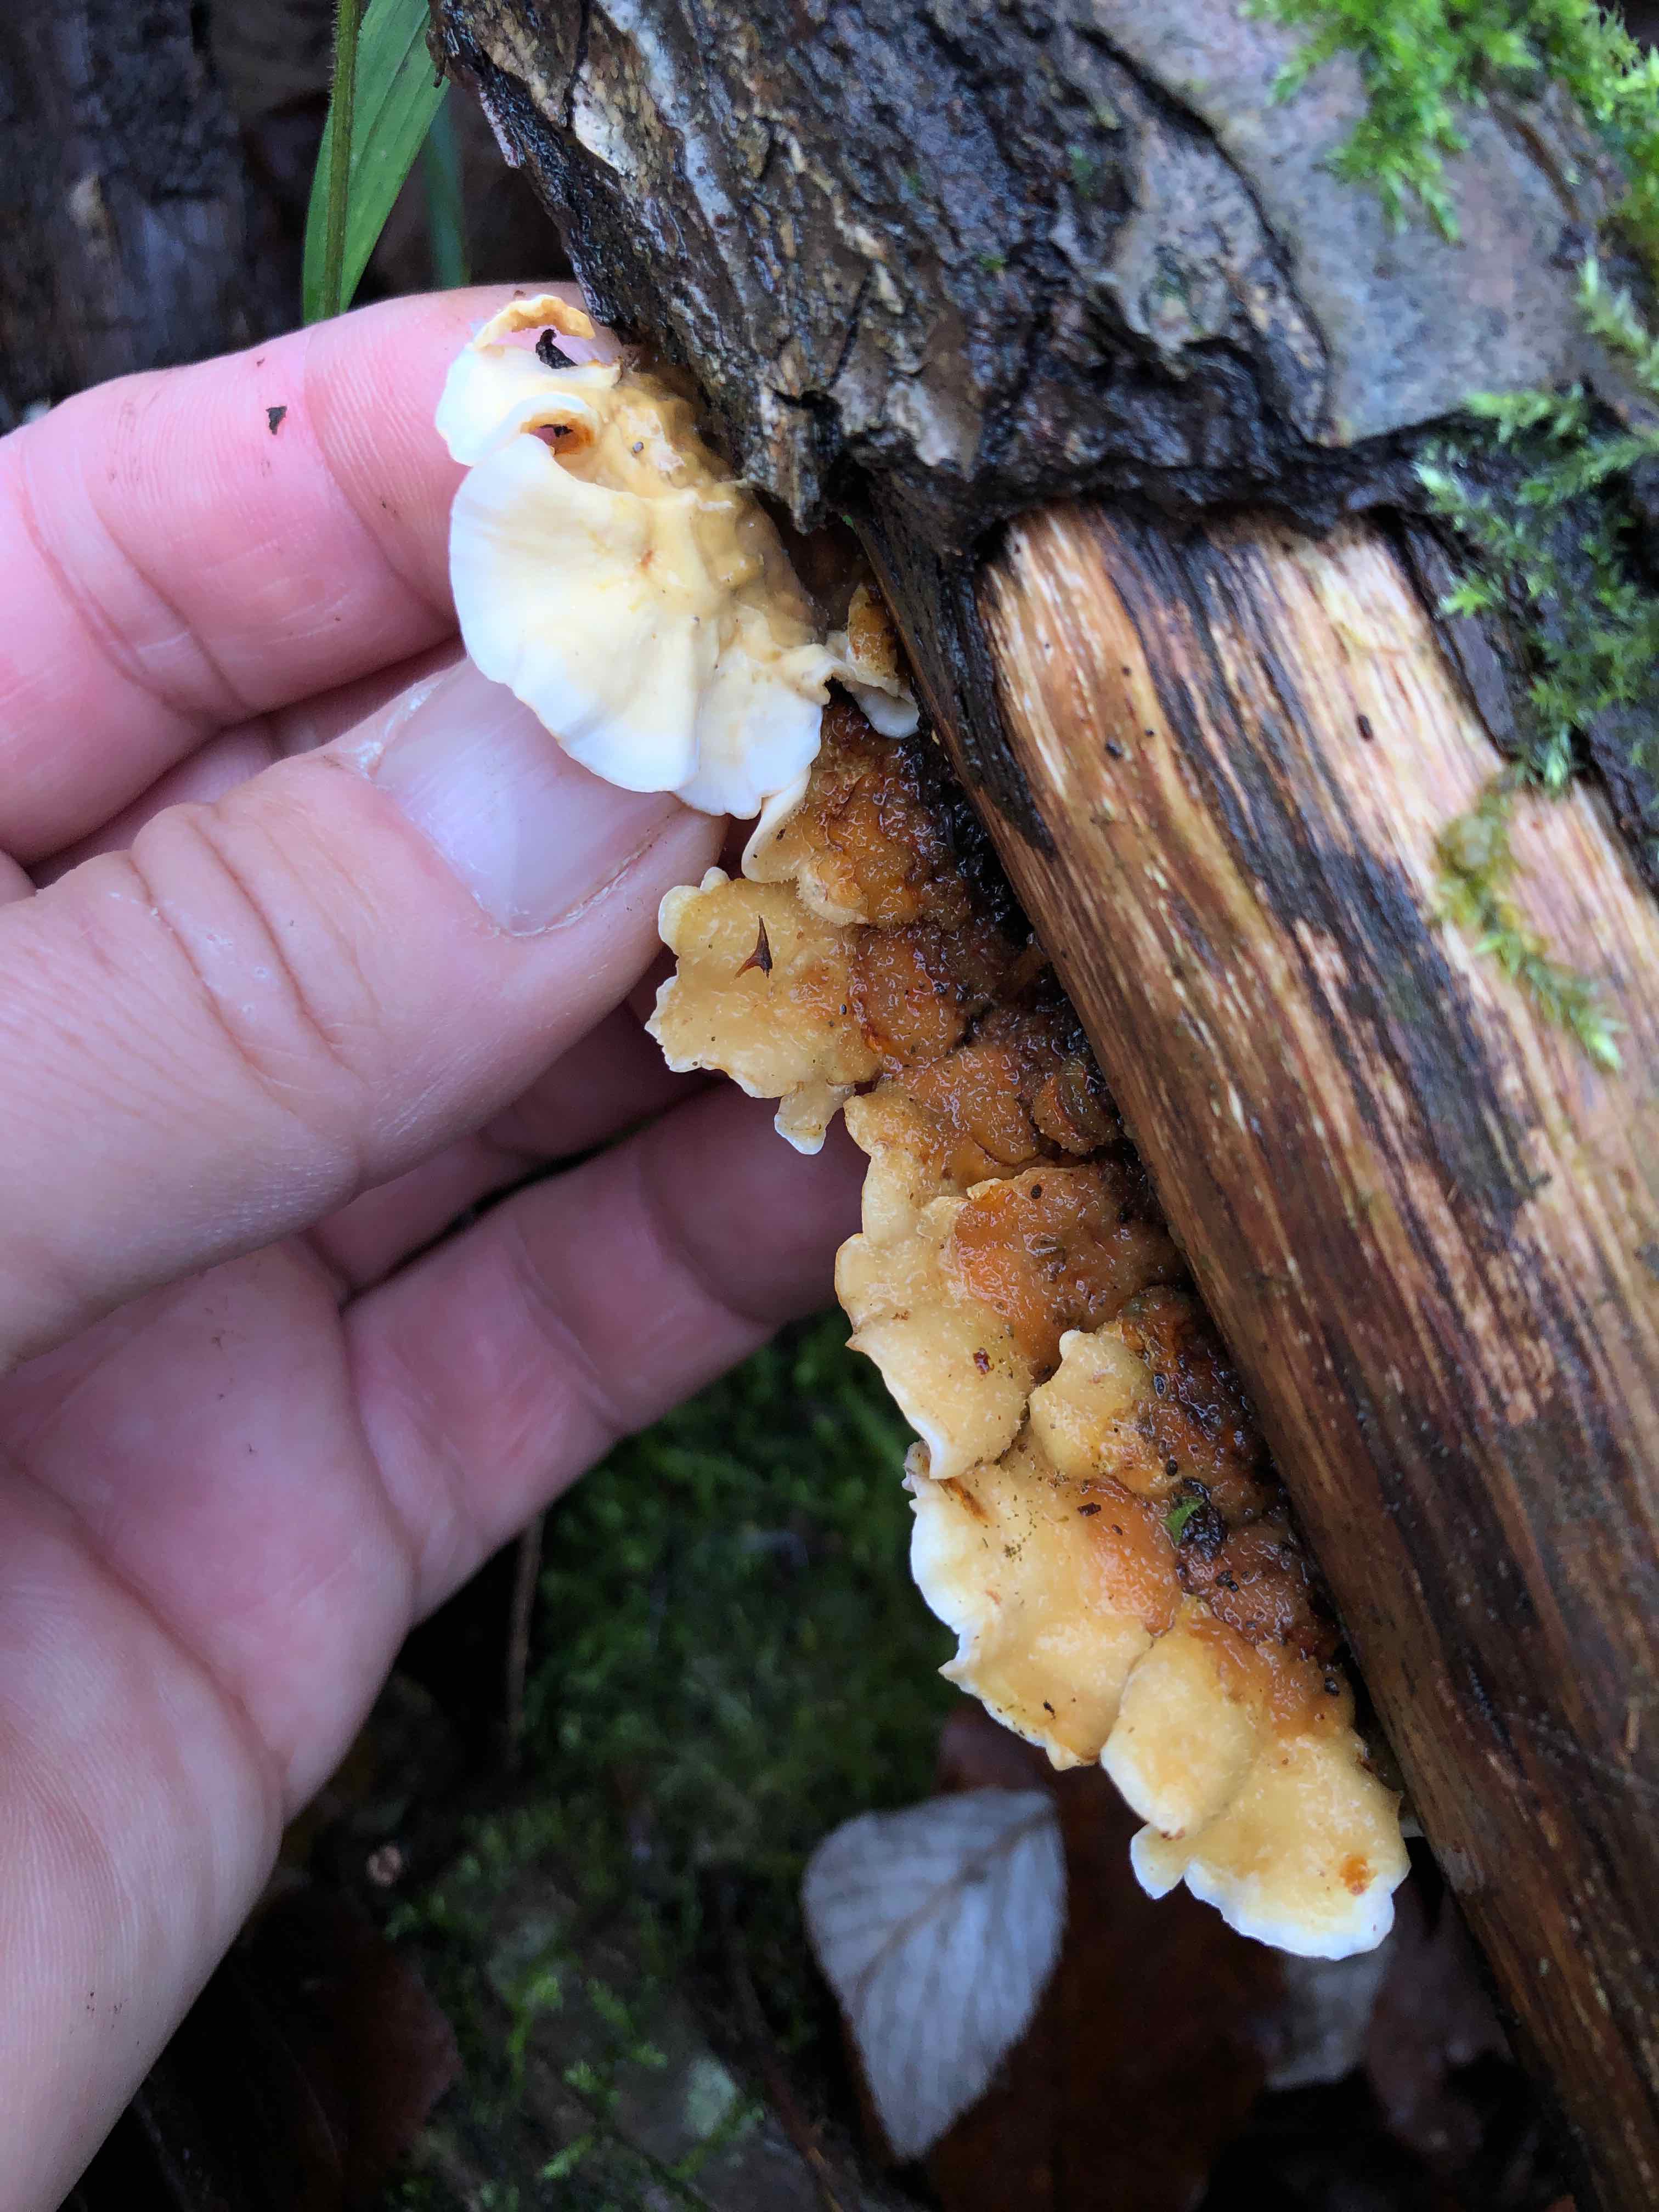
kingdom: Fungi
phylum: Basidiomycota
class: Agaricomycetes
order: Russulales
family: Stereaceae
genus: Stereum
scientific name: Stereum hirsutum
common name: håret lædersvamp
